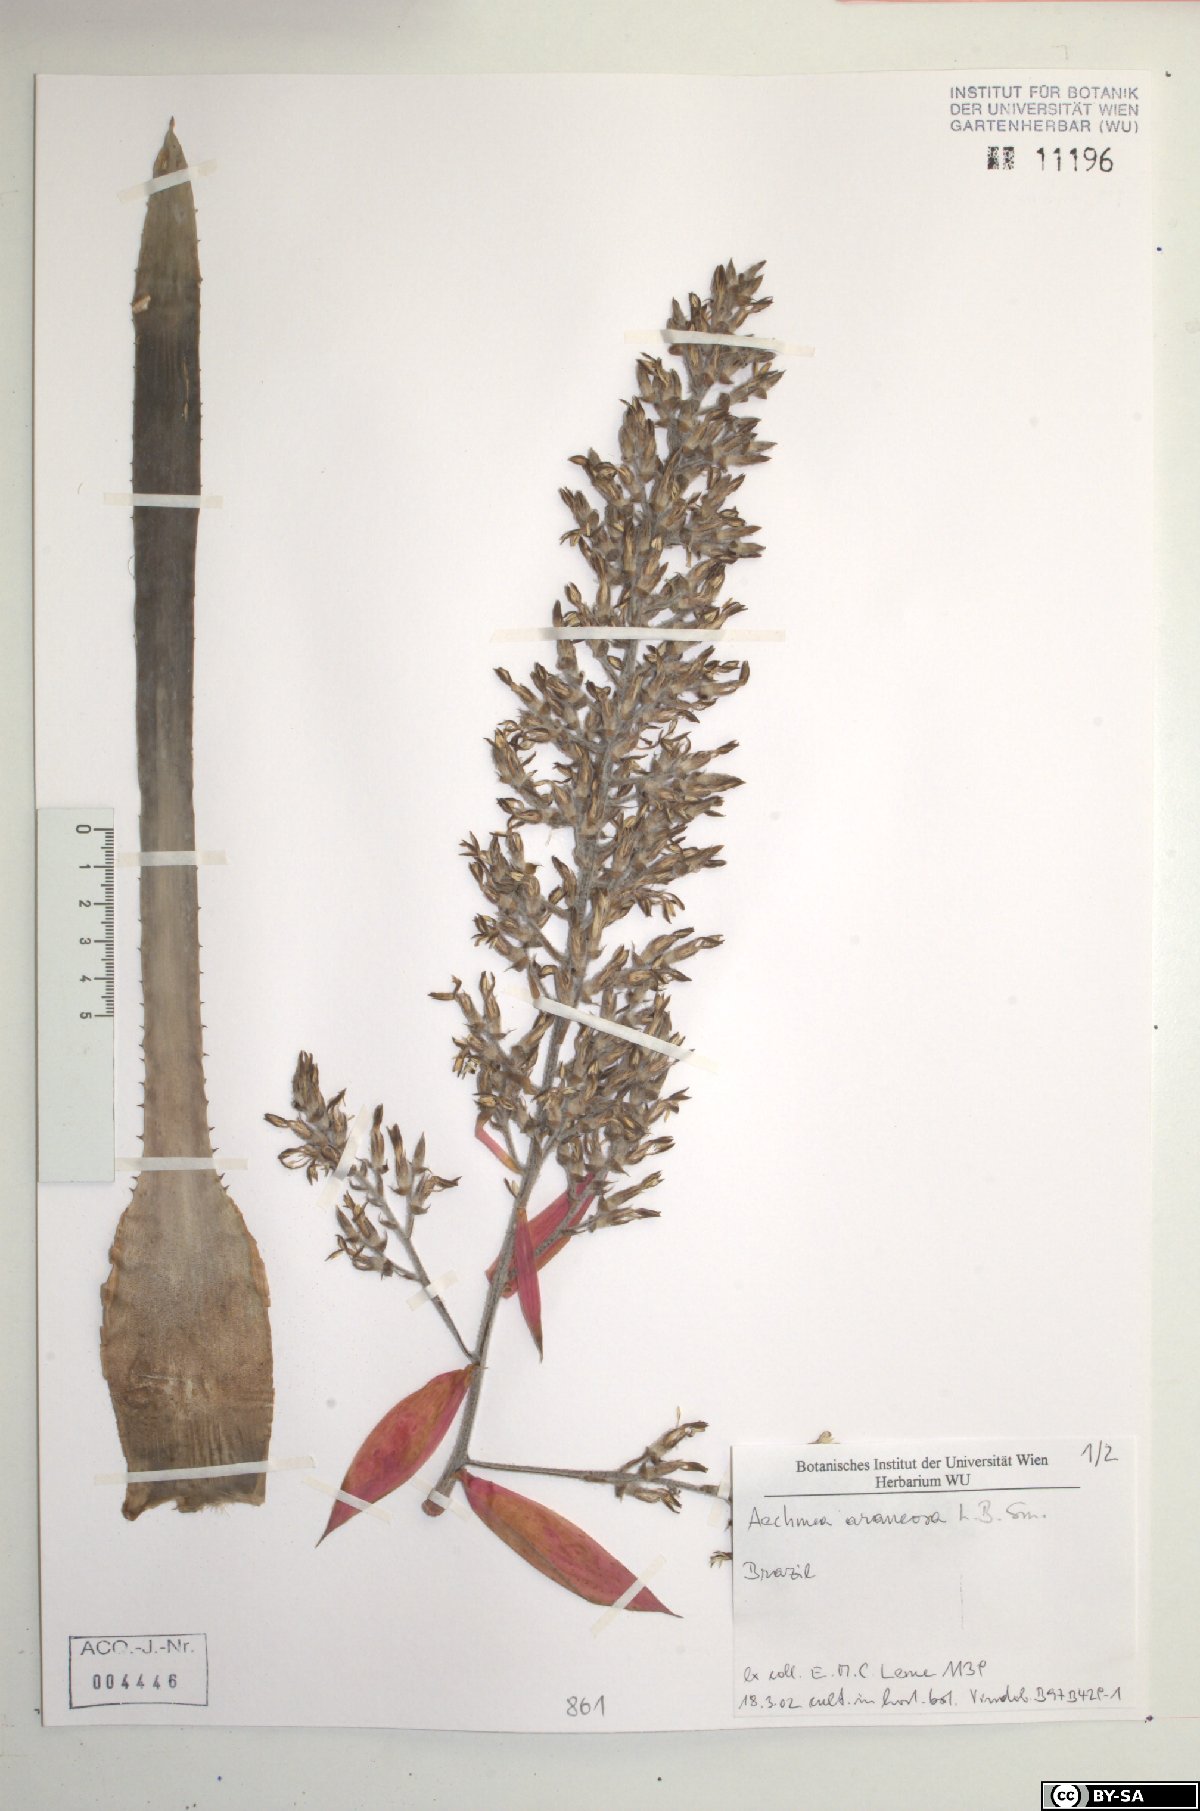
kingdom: Plantae
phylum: Tracheophyta
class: Liliopsida
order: Poales
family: Bromeliaceae
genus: Aechmea
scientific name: Aechmea araneosa
